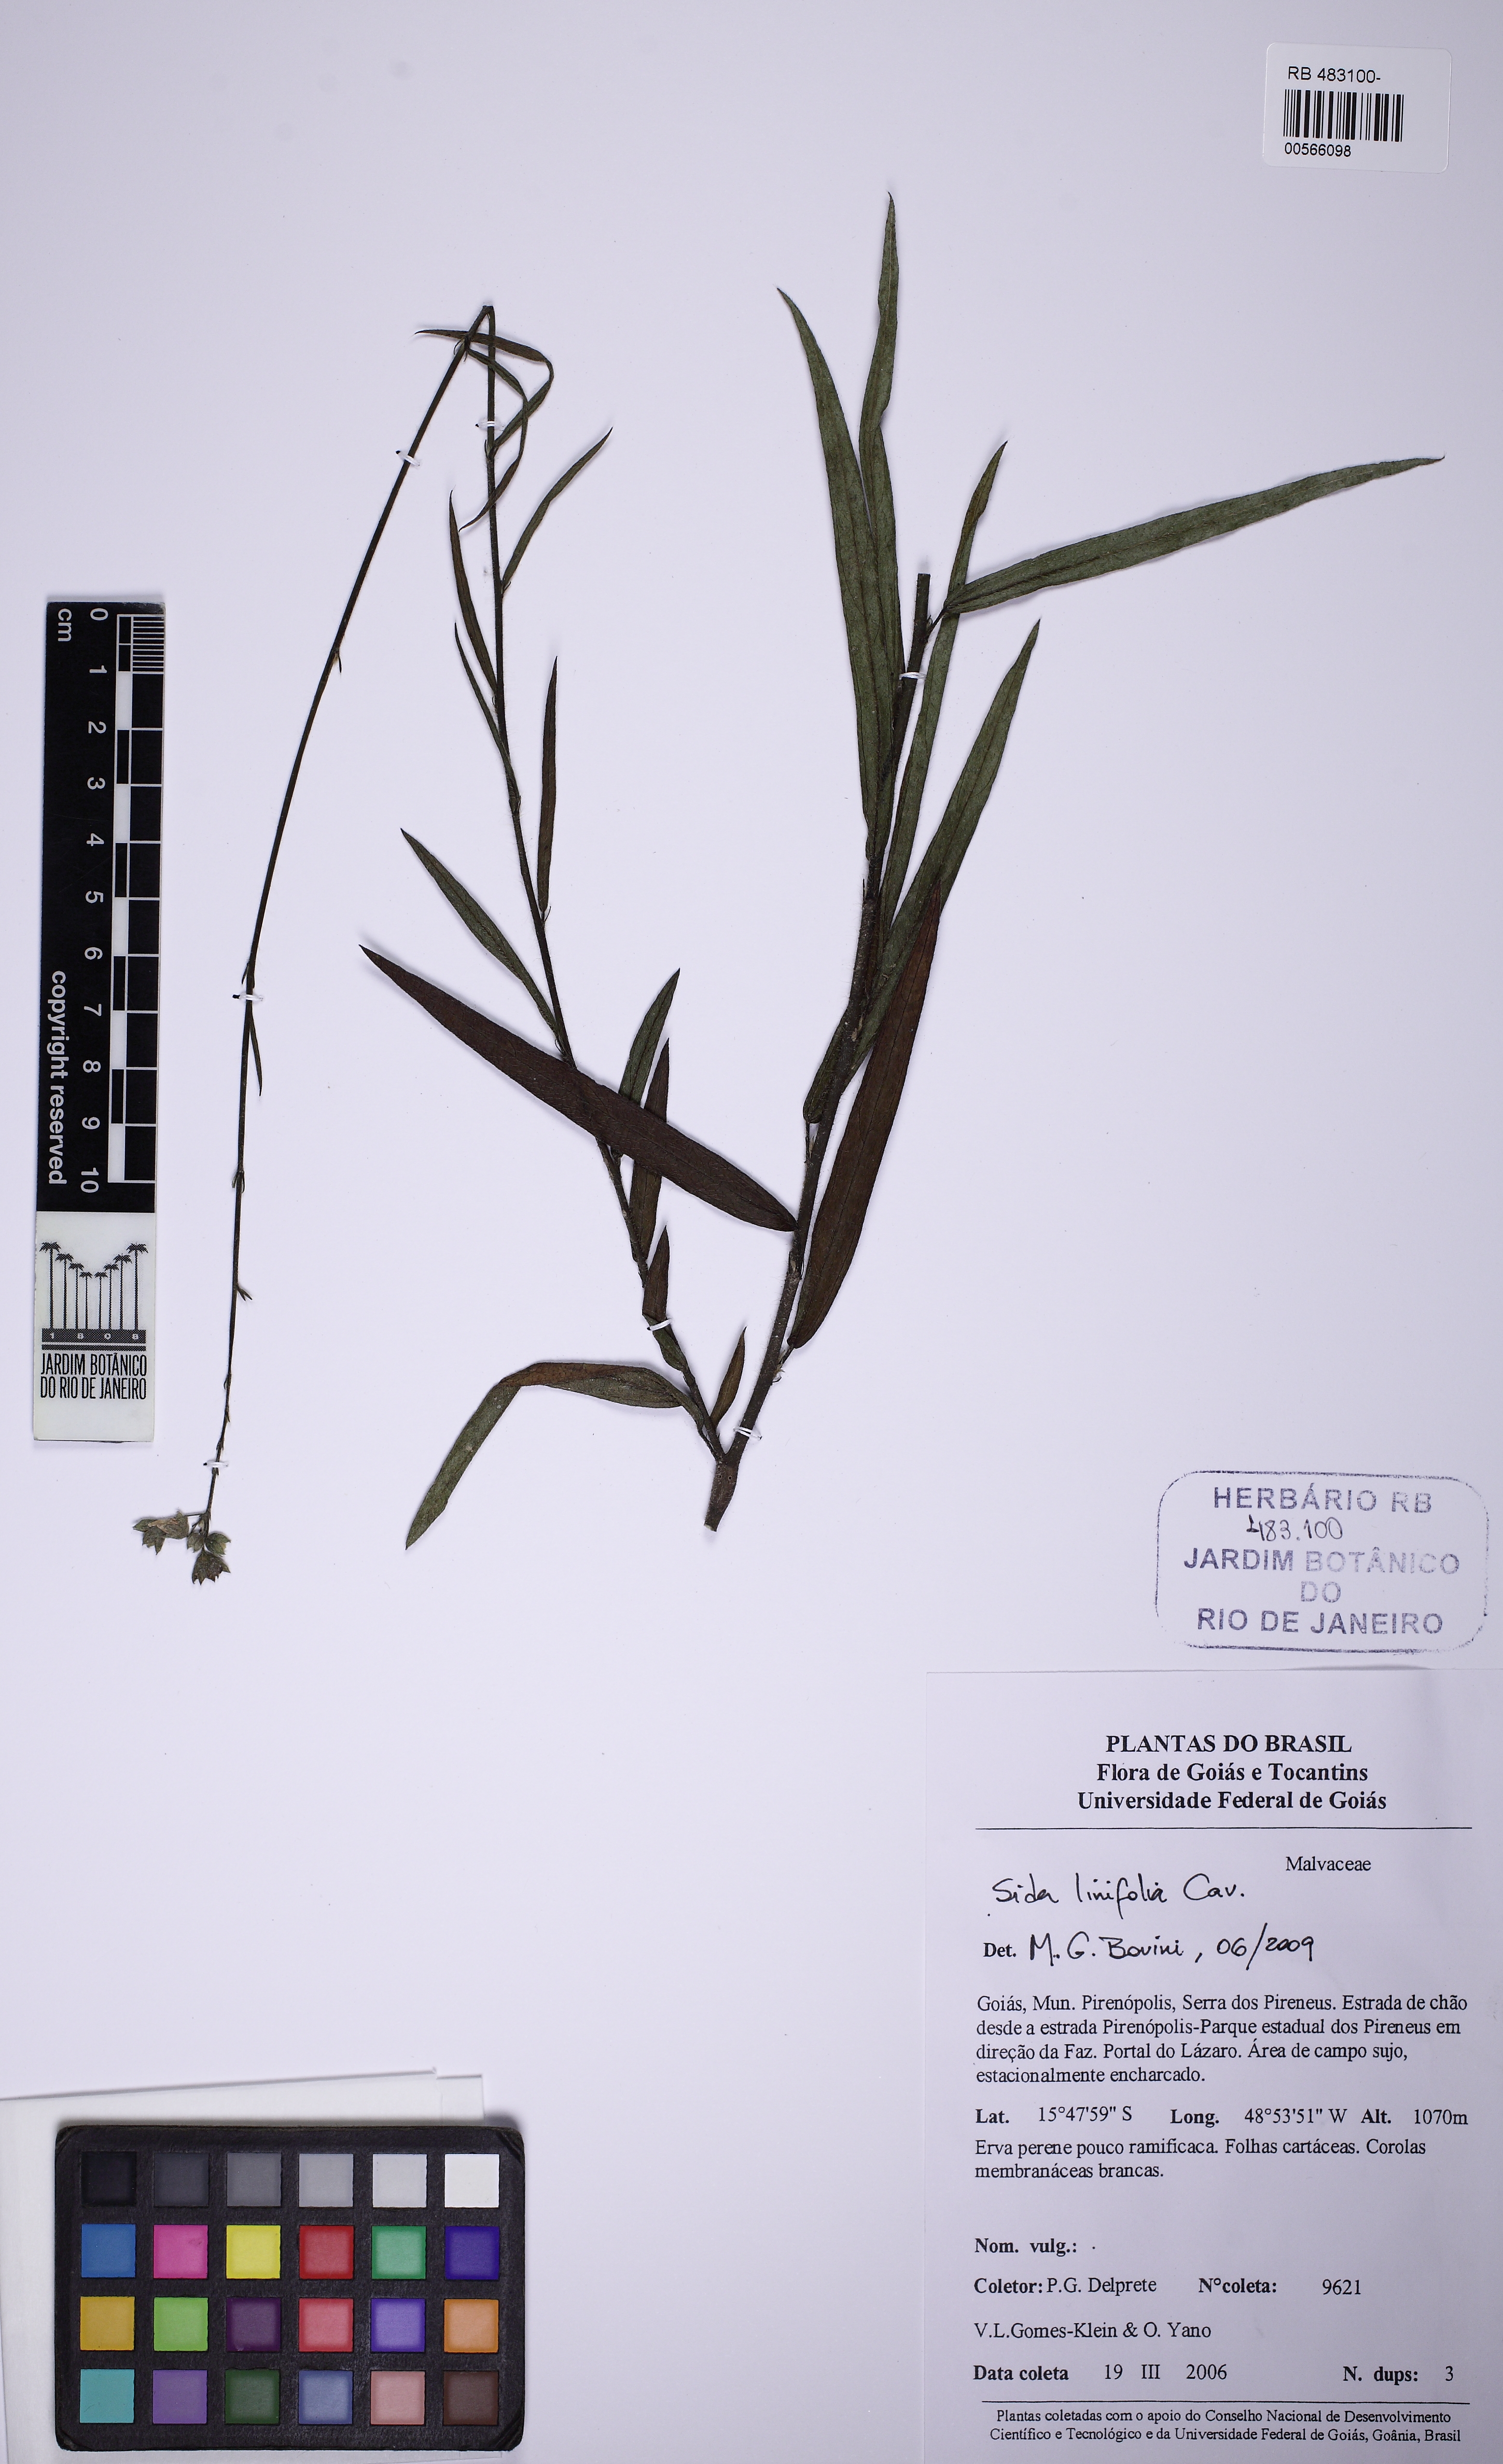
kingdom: Plantae
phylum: Tracheophyta
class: Magnoliopsida
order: Malvales
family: Malvaceae
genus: Sida
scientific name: Sida linifolia
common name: Flaxleaf fanpetals
